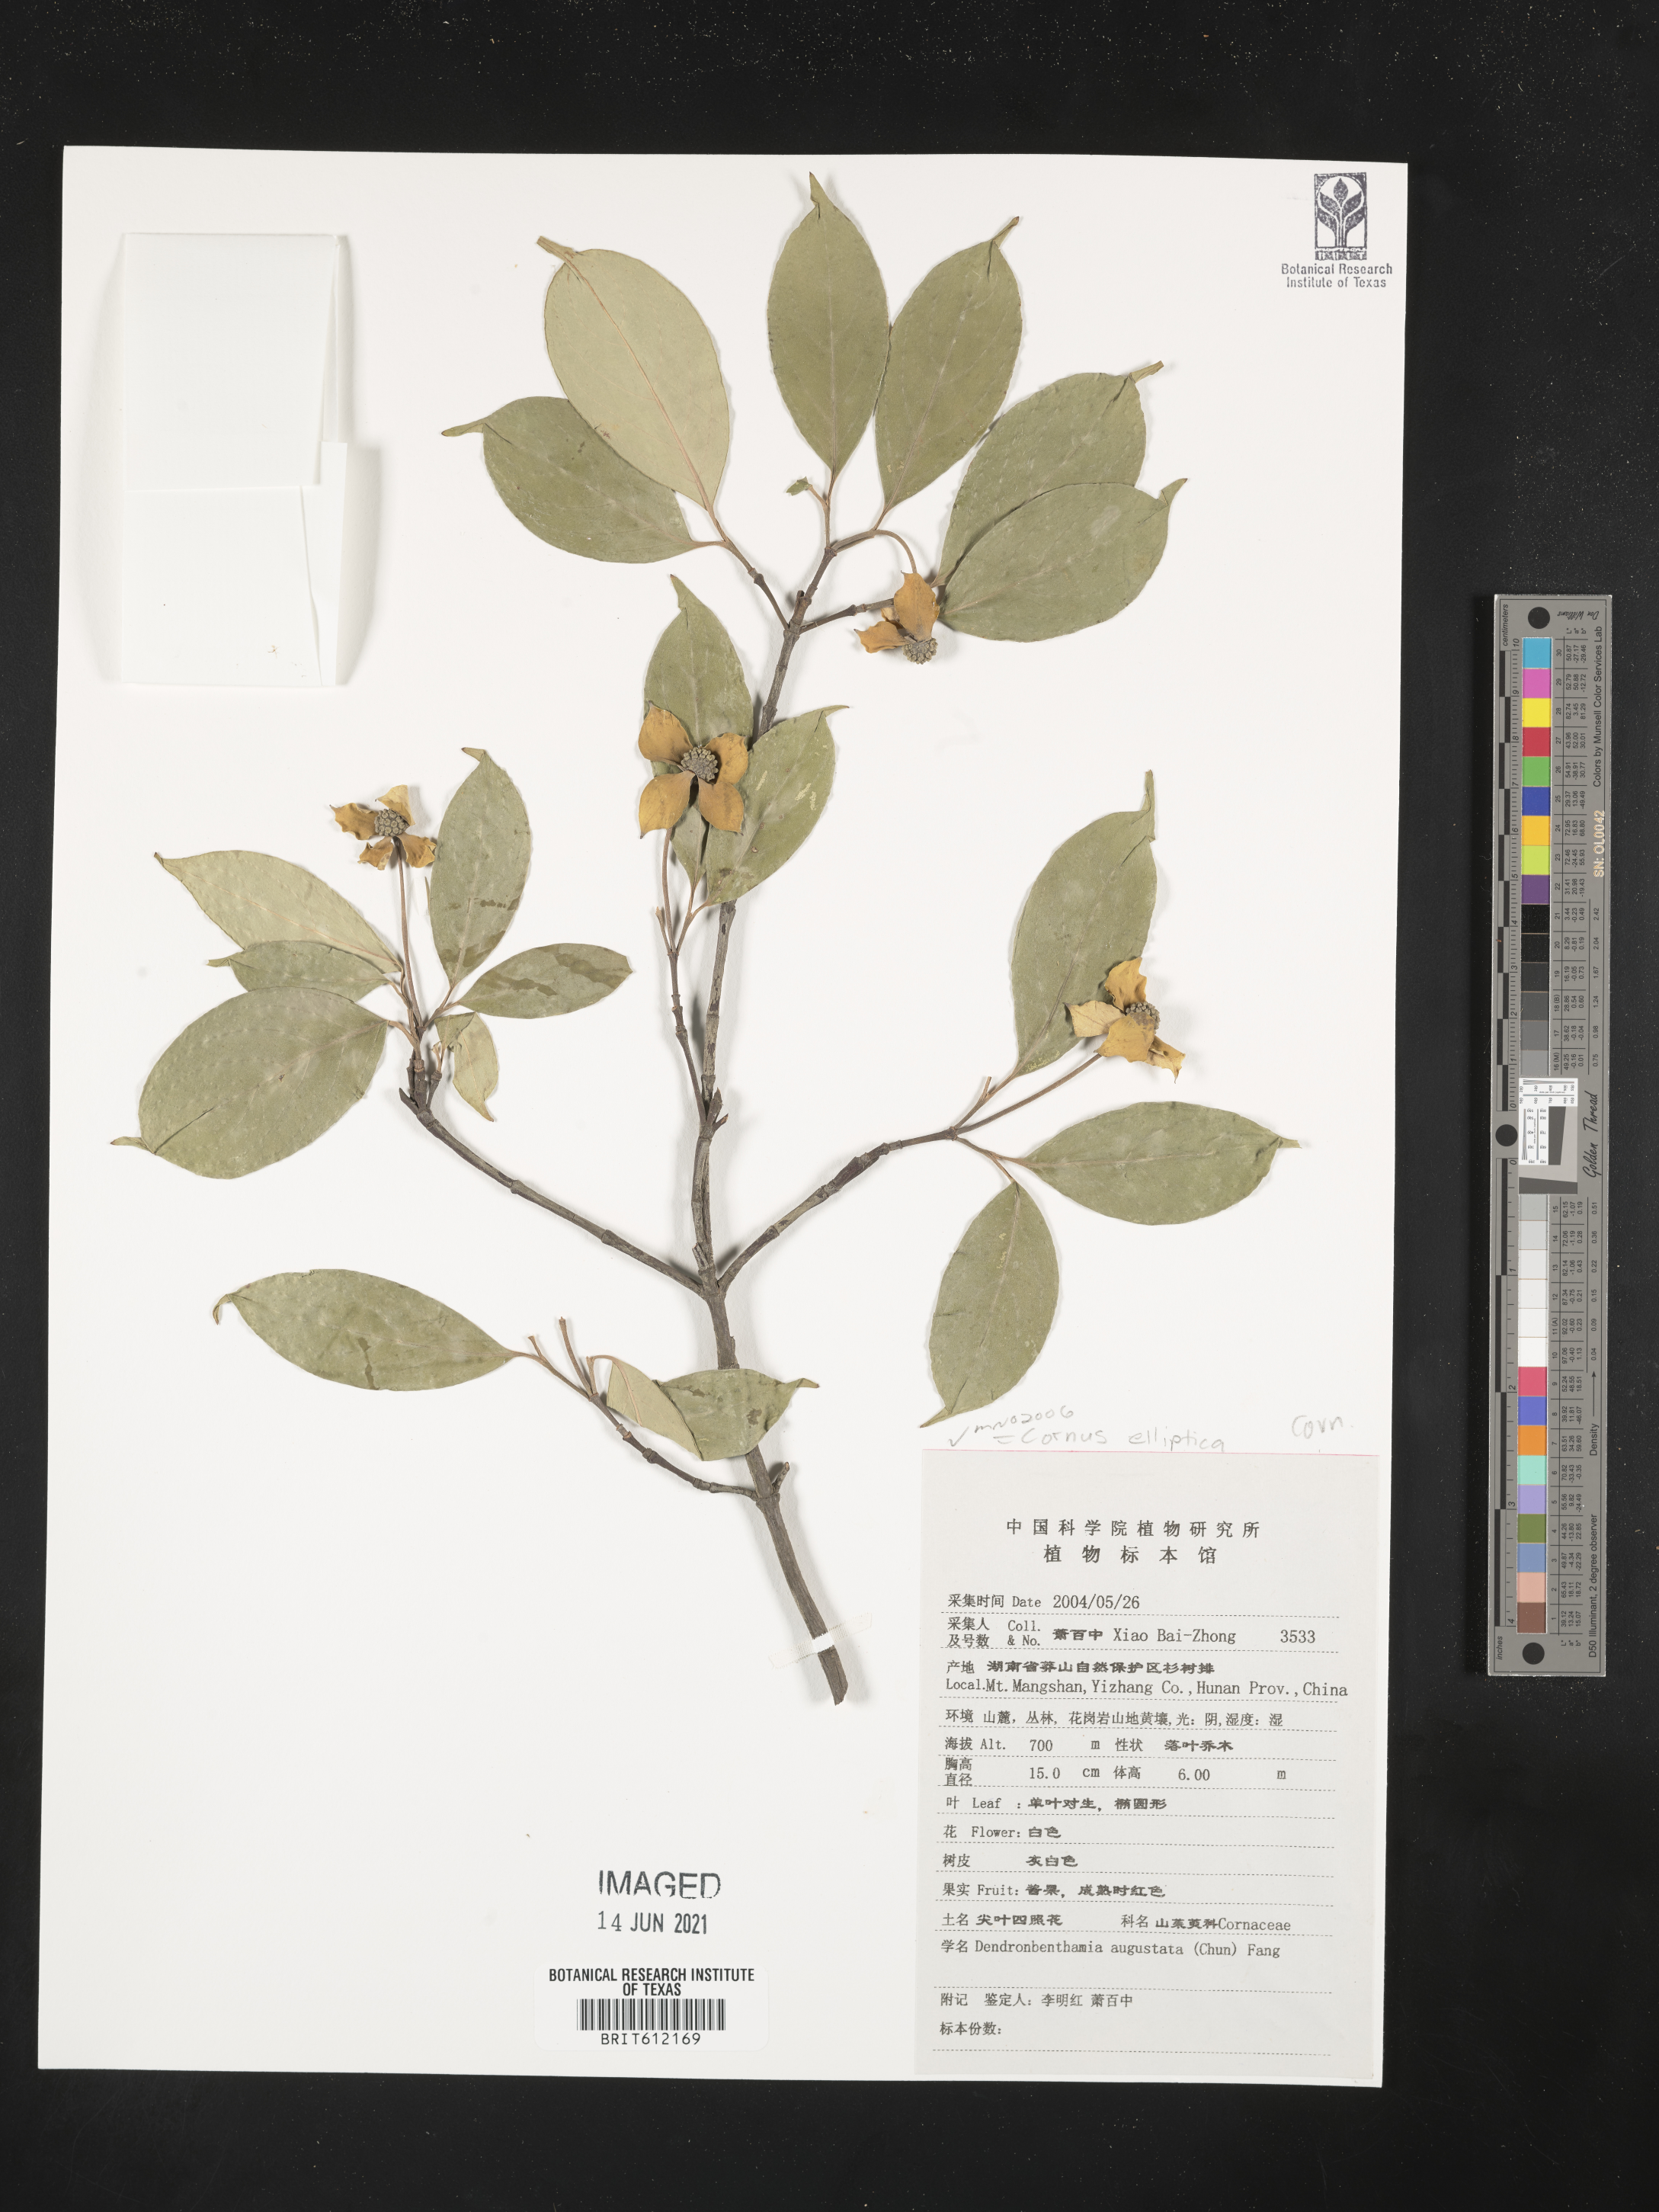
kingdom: Plantae
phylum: Tracheophyta
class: Magnoliopsida
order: Cornales
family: Cornaceae
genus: Cornus
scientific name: Cornus capitata
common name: Bentham's cornel
